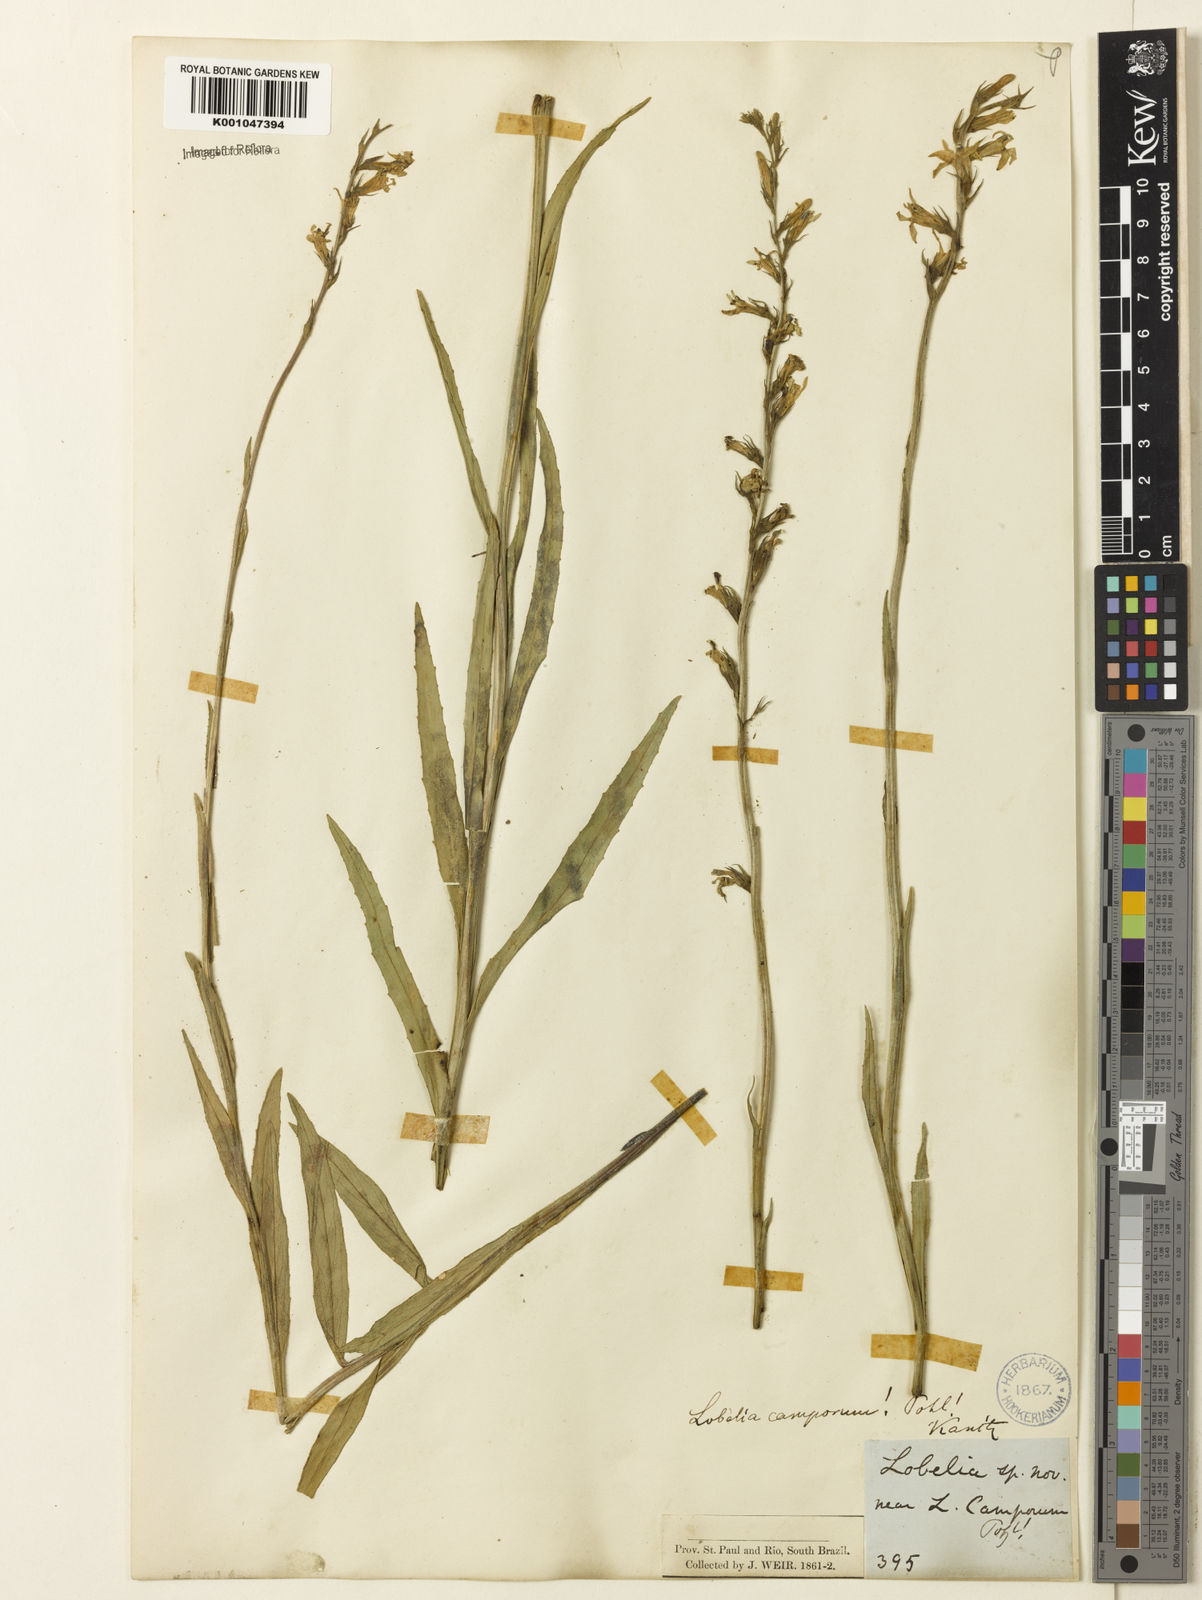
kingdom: Plantae
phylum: Tracheophyta
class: Magnoliopsida
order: Asterales
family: Campanulaceae
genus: Lobelia
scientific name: Lobelia camporum
